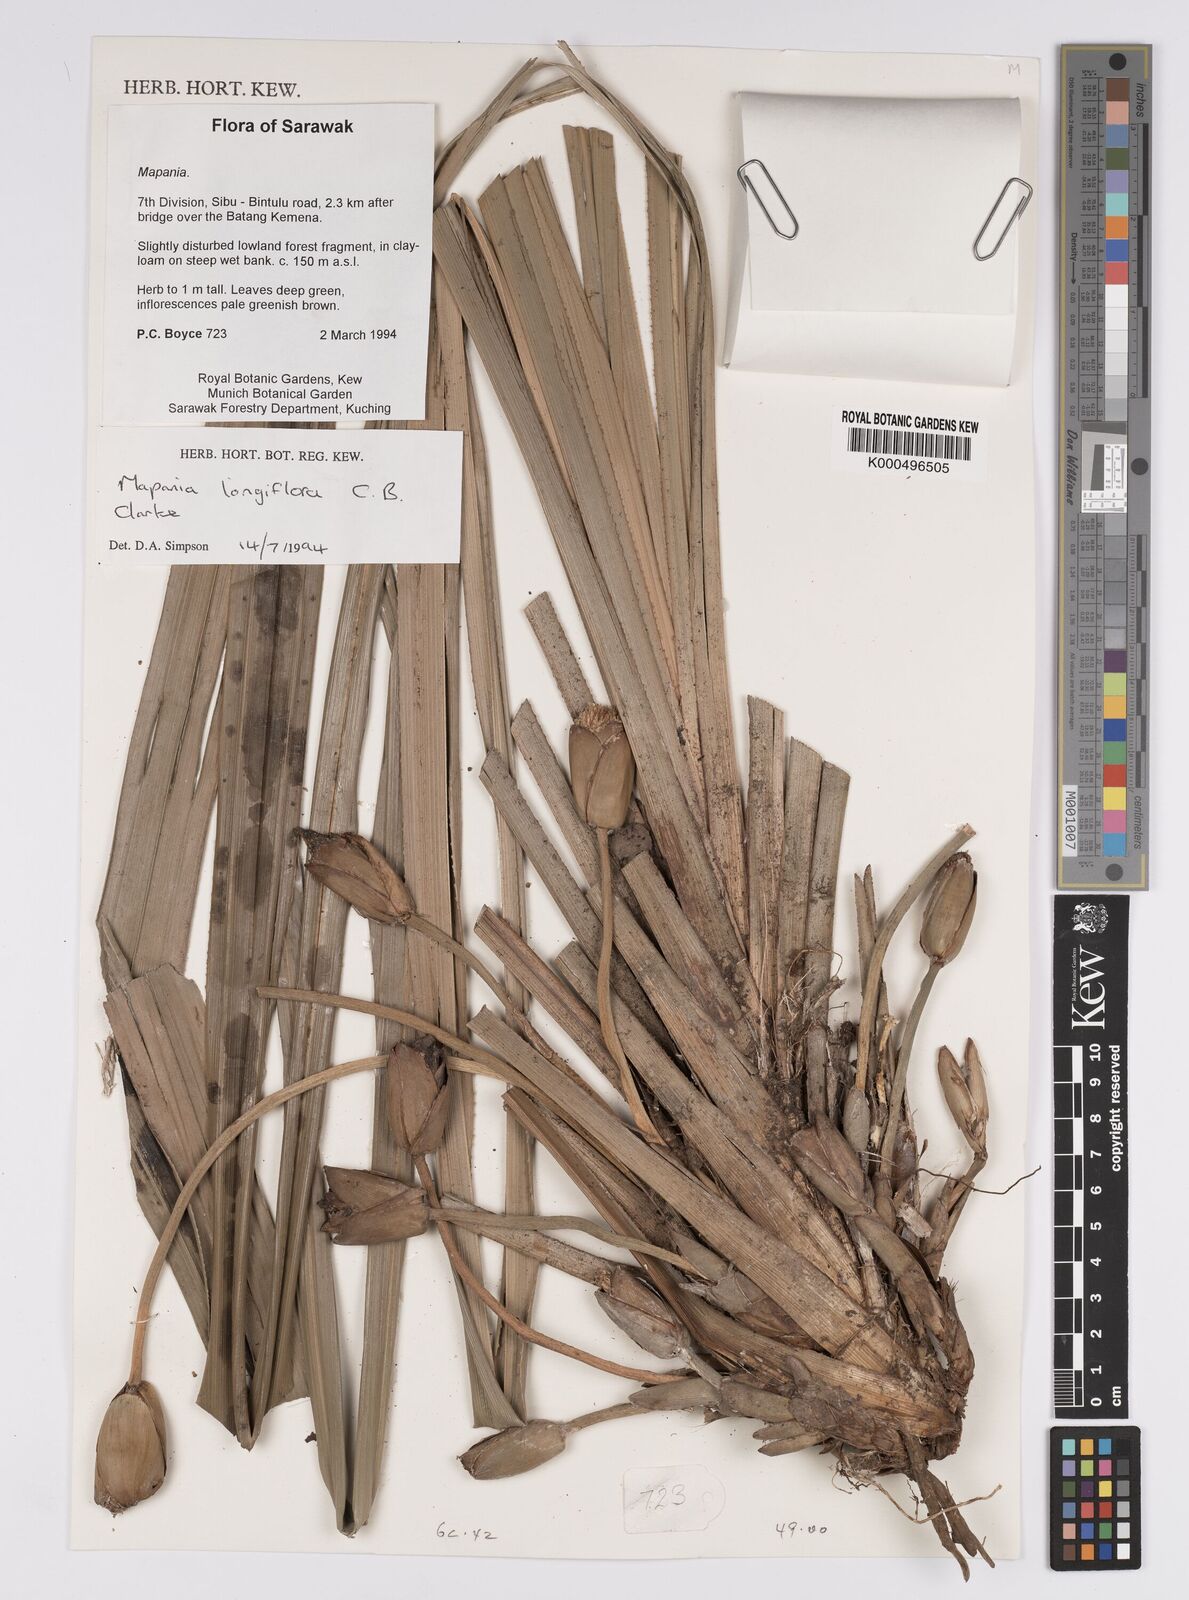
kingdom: Plantae
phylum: Tracheophyta
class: Liliopsida
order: Poales
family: Cyperaceae
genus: Mapania
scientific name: Mapania longiflora
